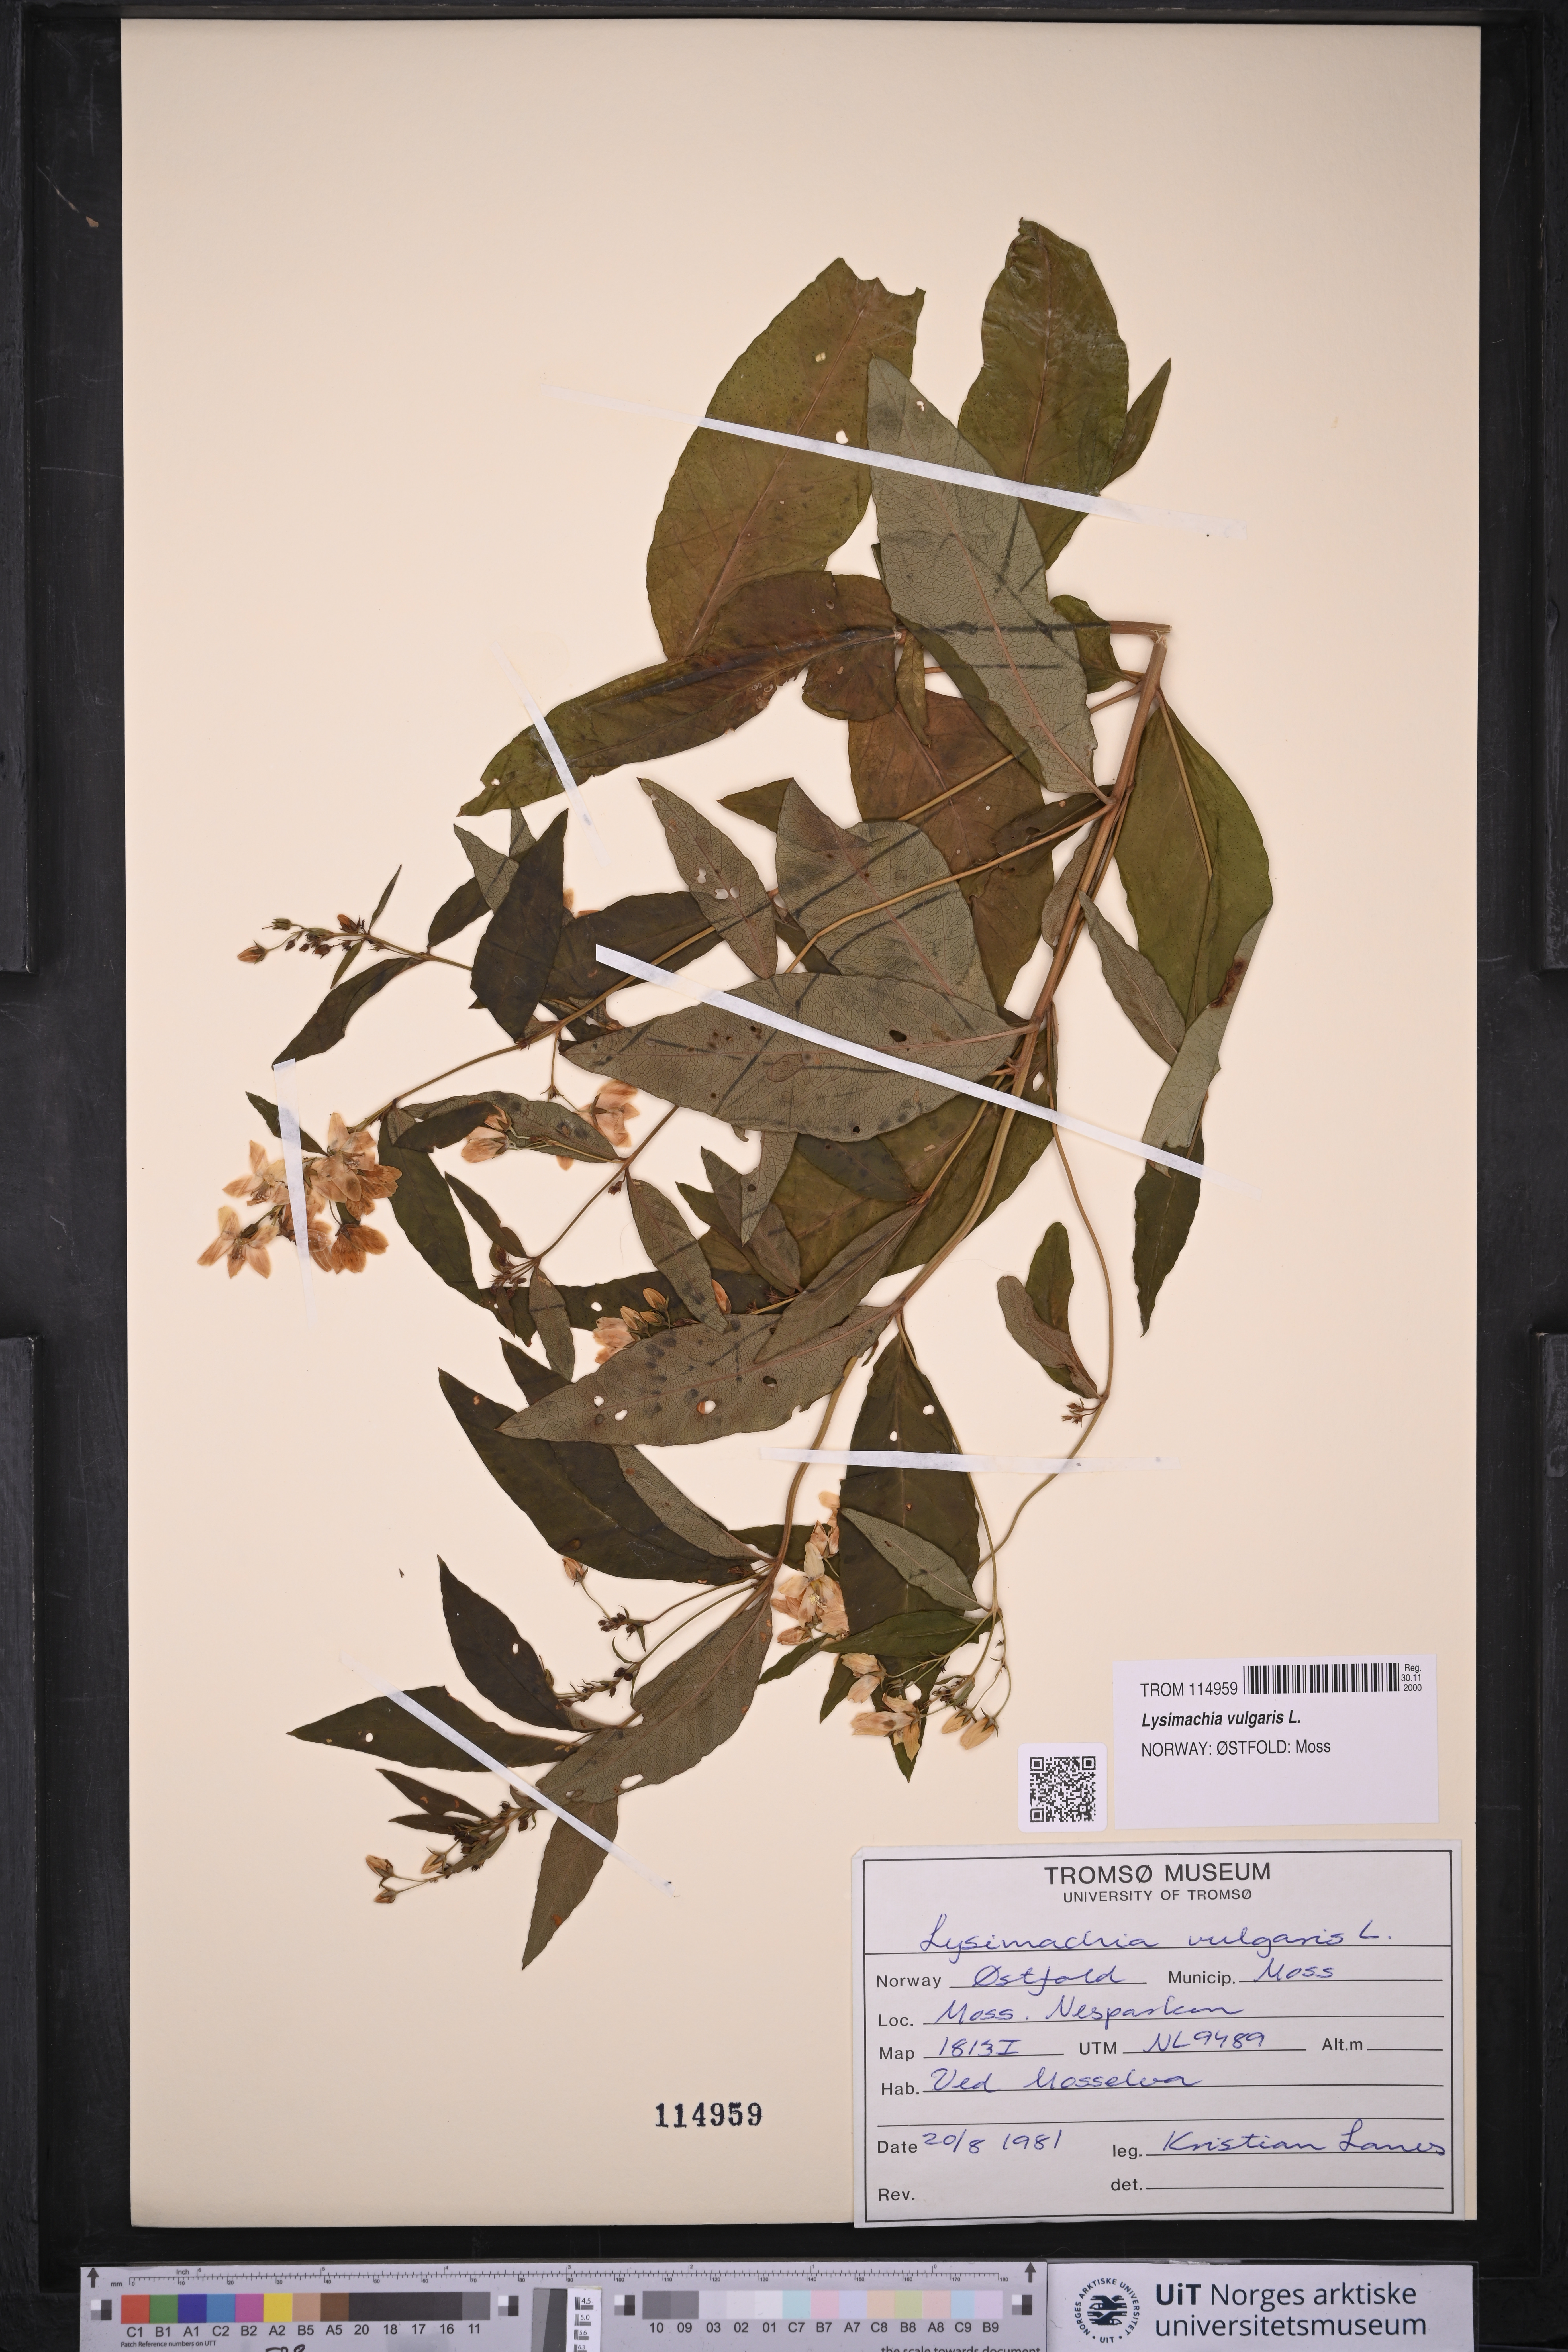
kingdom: Plantae
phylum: Tracheophyta
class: Magnoliopsida
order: Ericales
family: Primulaceae
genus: Lysimachia
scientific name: Lysimachia vulgaris
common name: Yellow loosestrife
